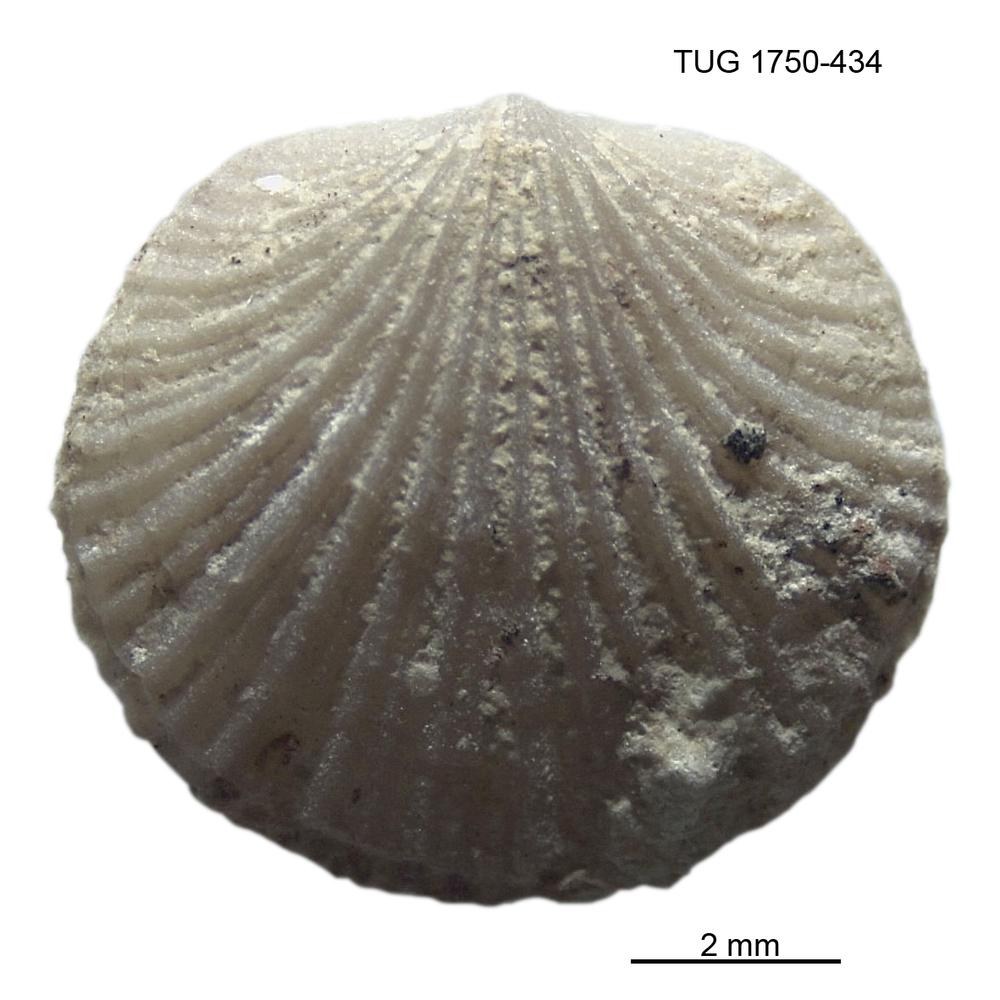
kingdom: Animalia
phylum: Brachiopoda
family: Sowerbyellidae
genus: Sowerbyella
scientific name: Sowerbyella
